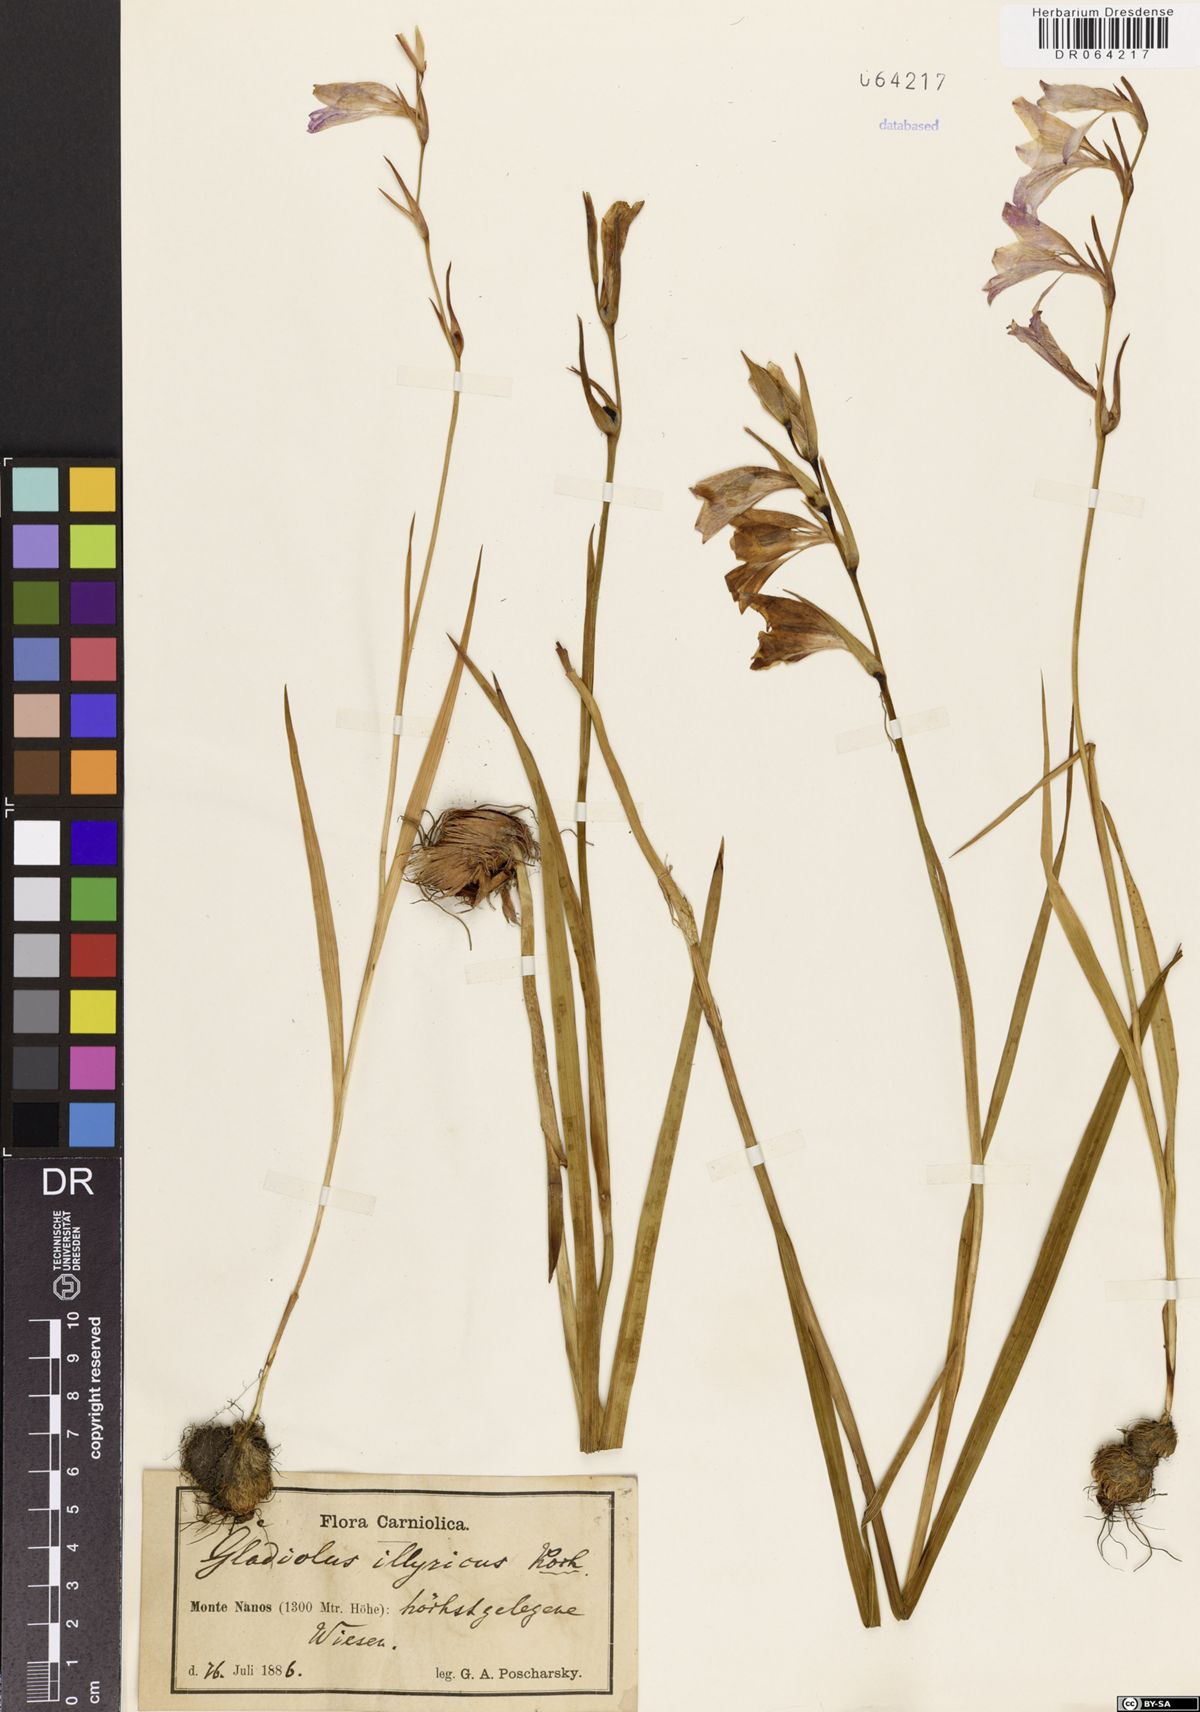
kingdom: Plantae
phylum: Tracheophyta
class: Liliopsida
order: Asparagales
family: Iridaceae
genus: Gladiolus
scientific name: Gladiolus illyricus
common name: Wild gladiolus
